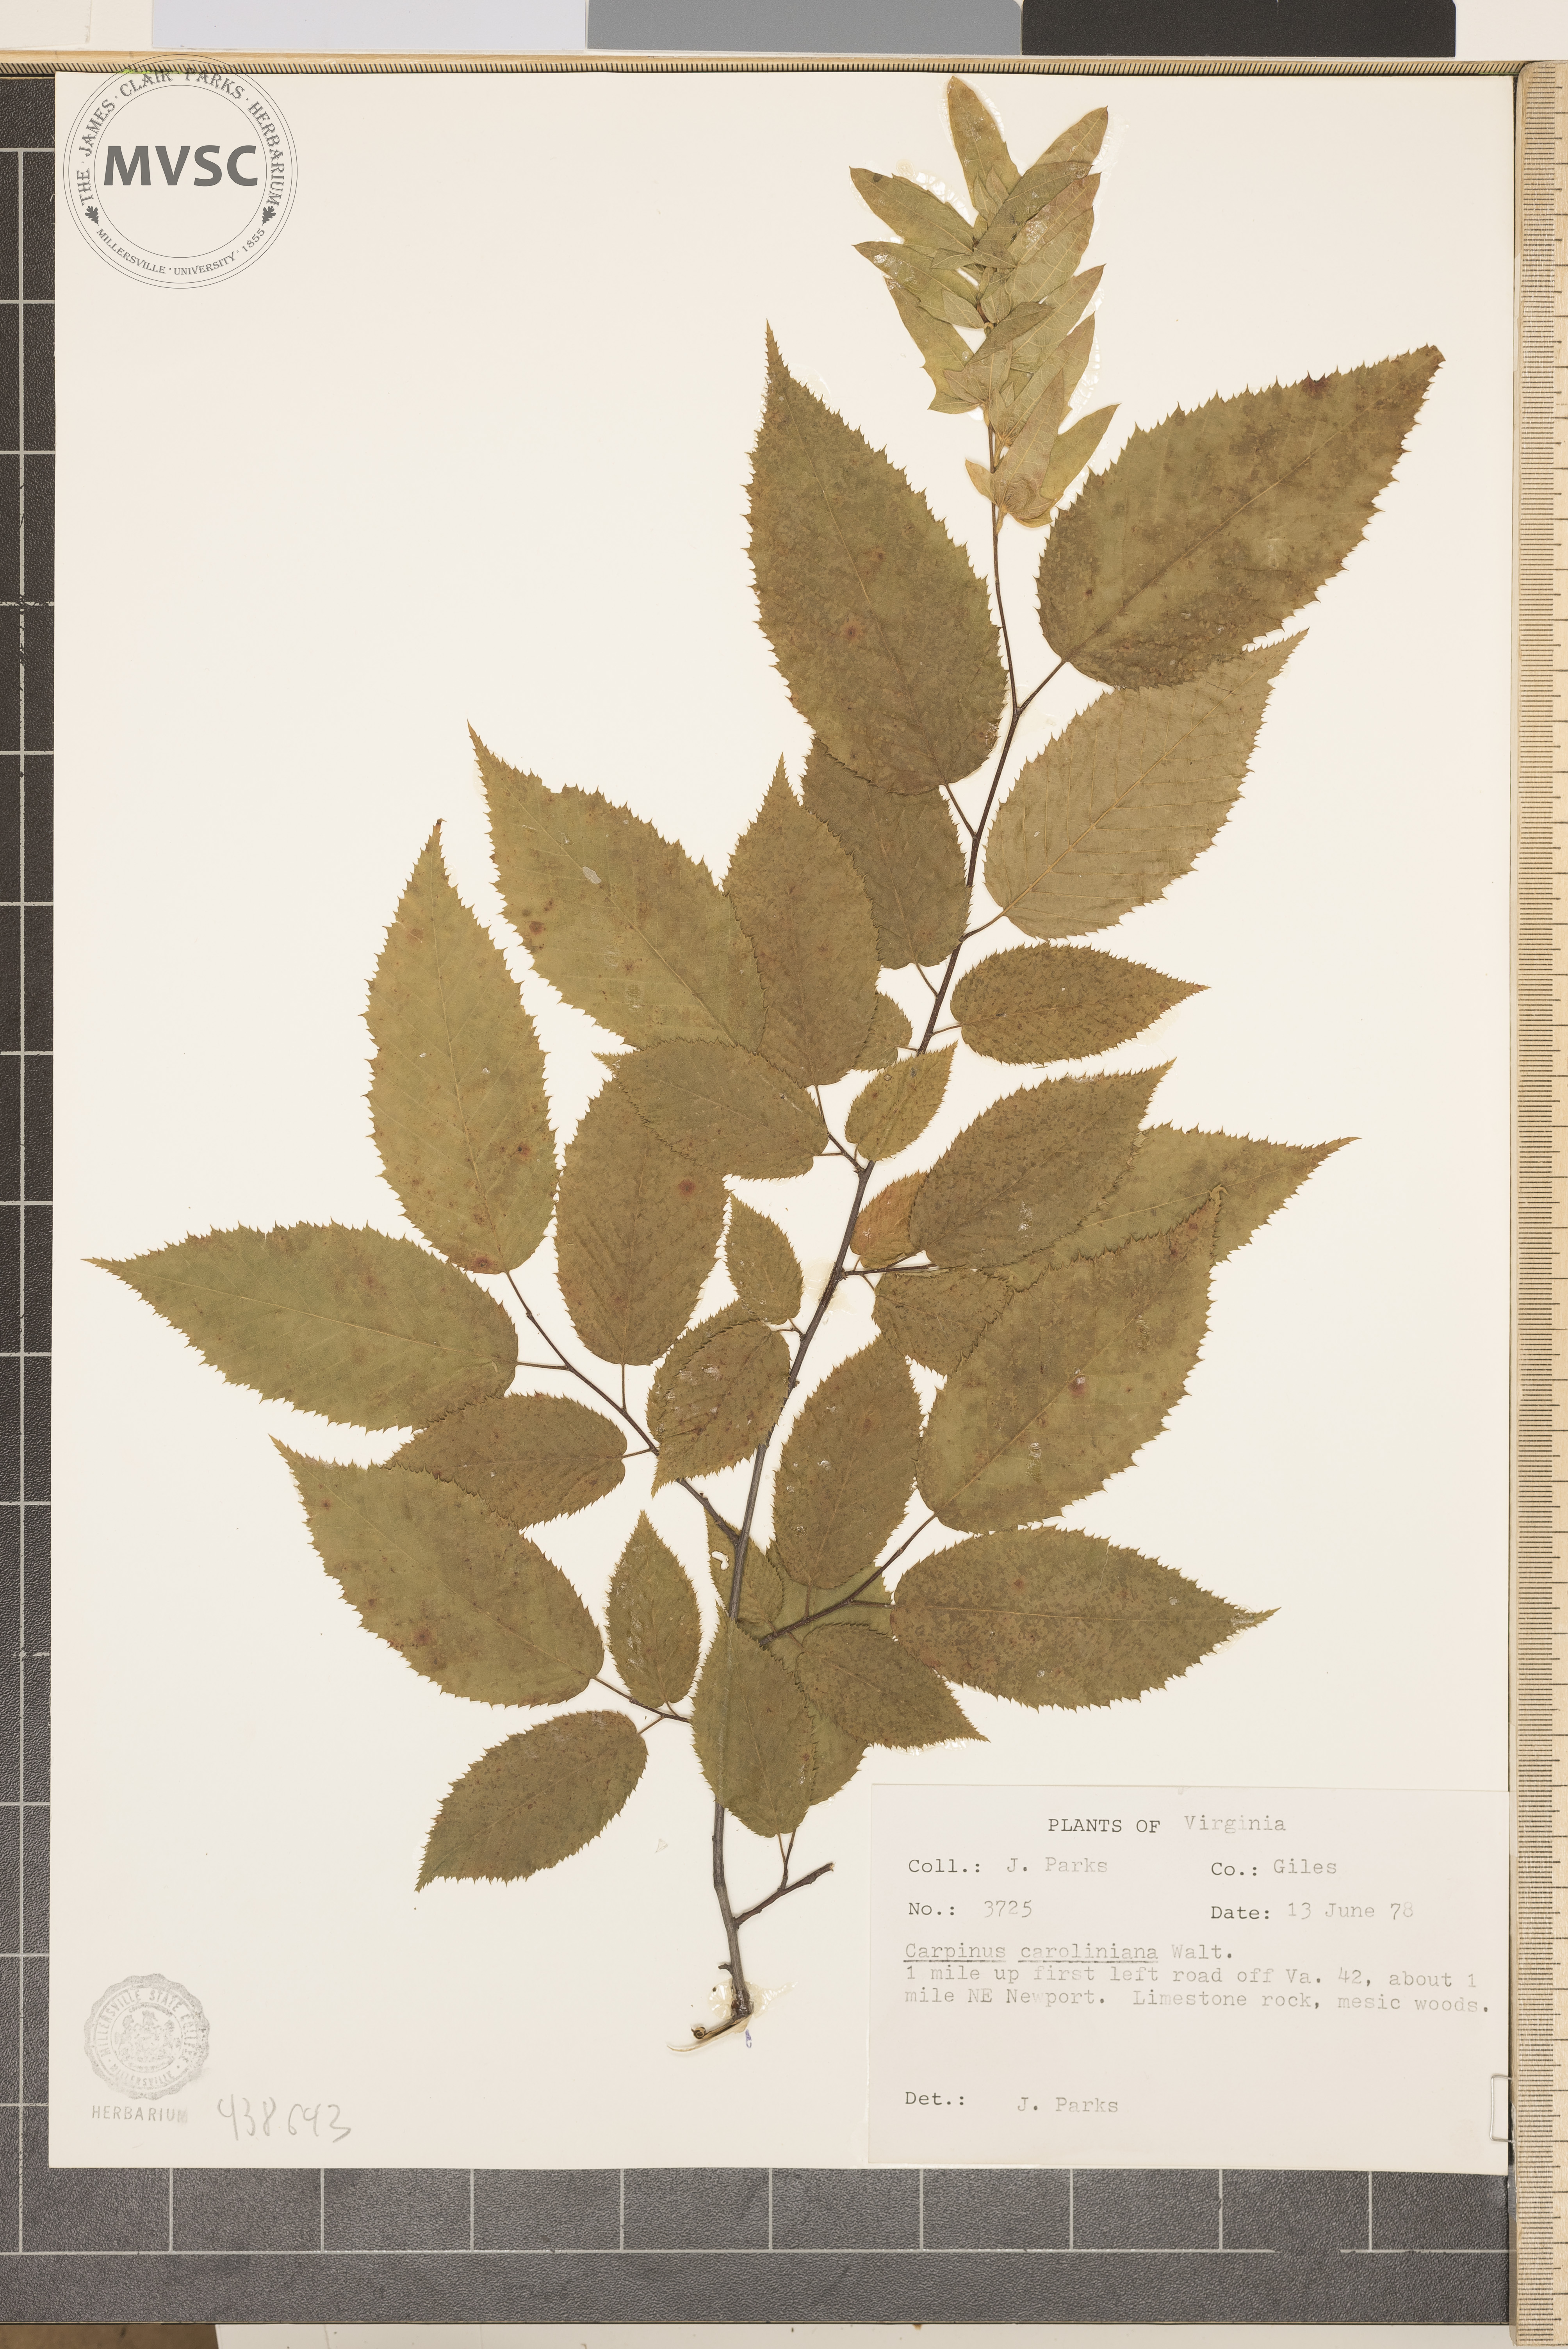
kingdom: Plantae
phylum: Tracheophyta
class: Magnoliopsida
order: Fagales
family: Betulaceae
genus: Carpinus
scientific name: Carpinus caroliniana
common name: American hornbeam
